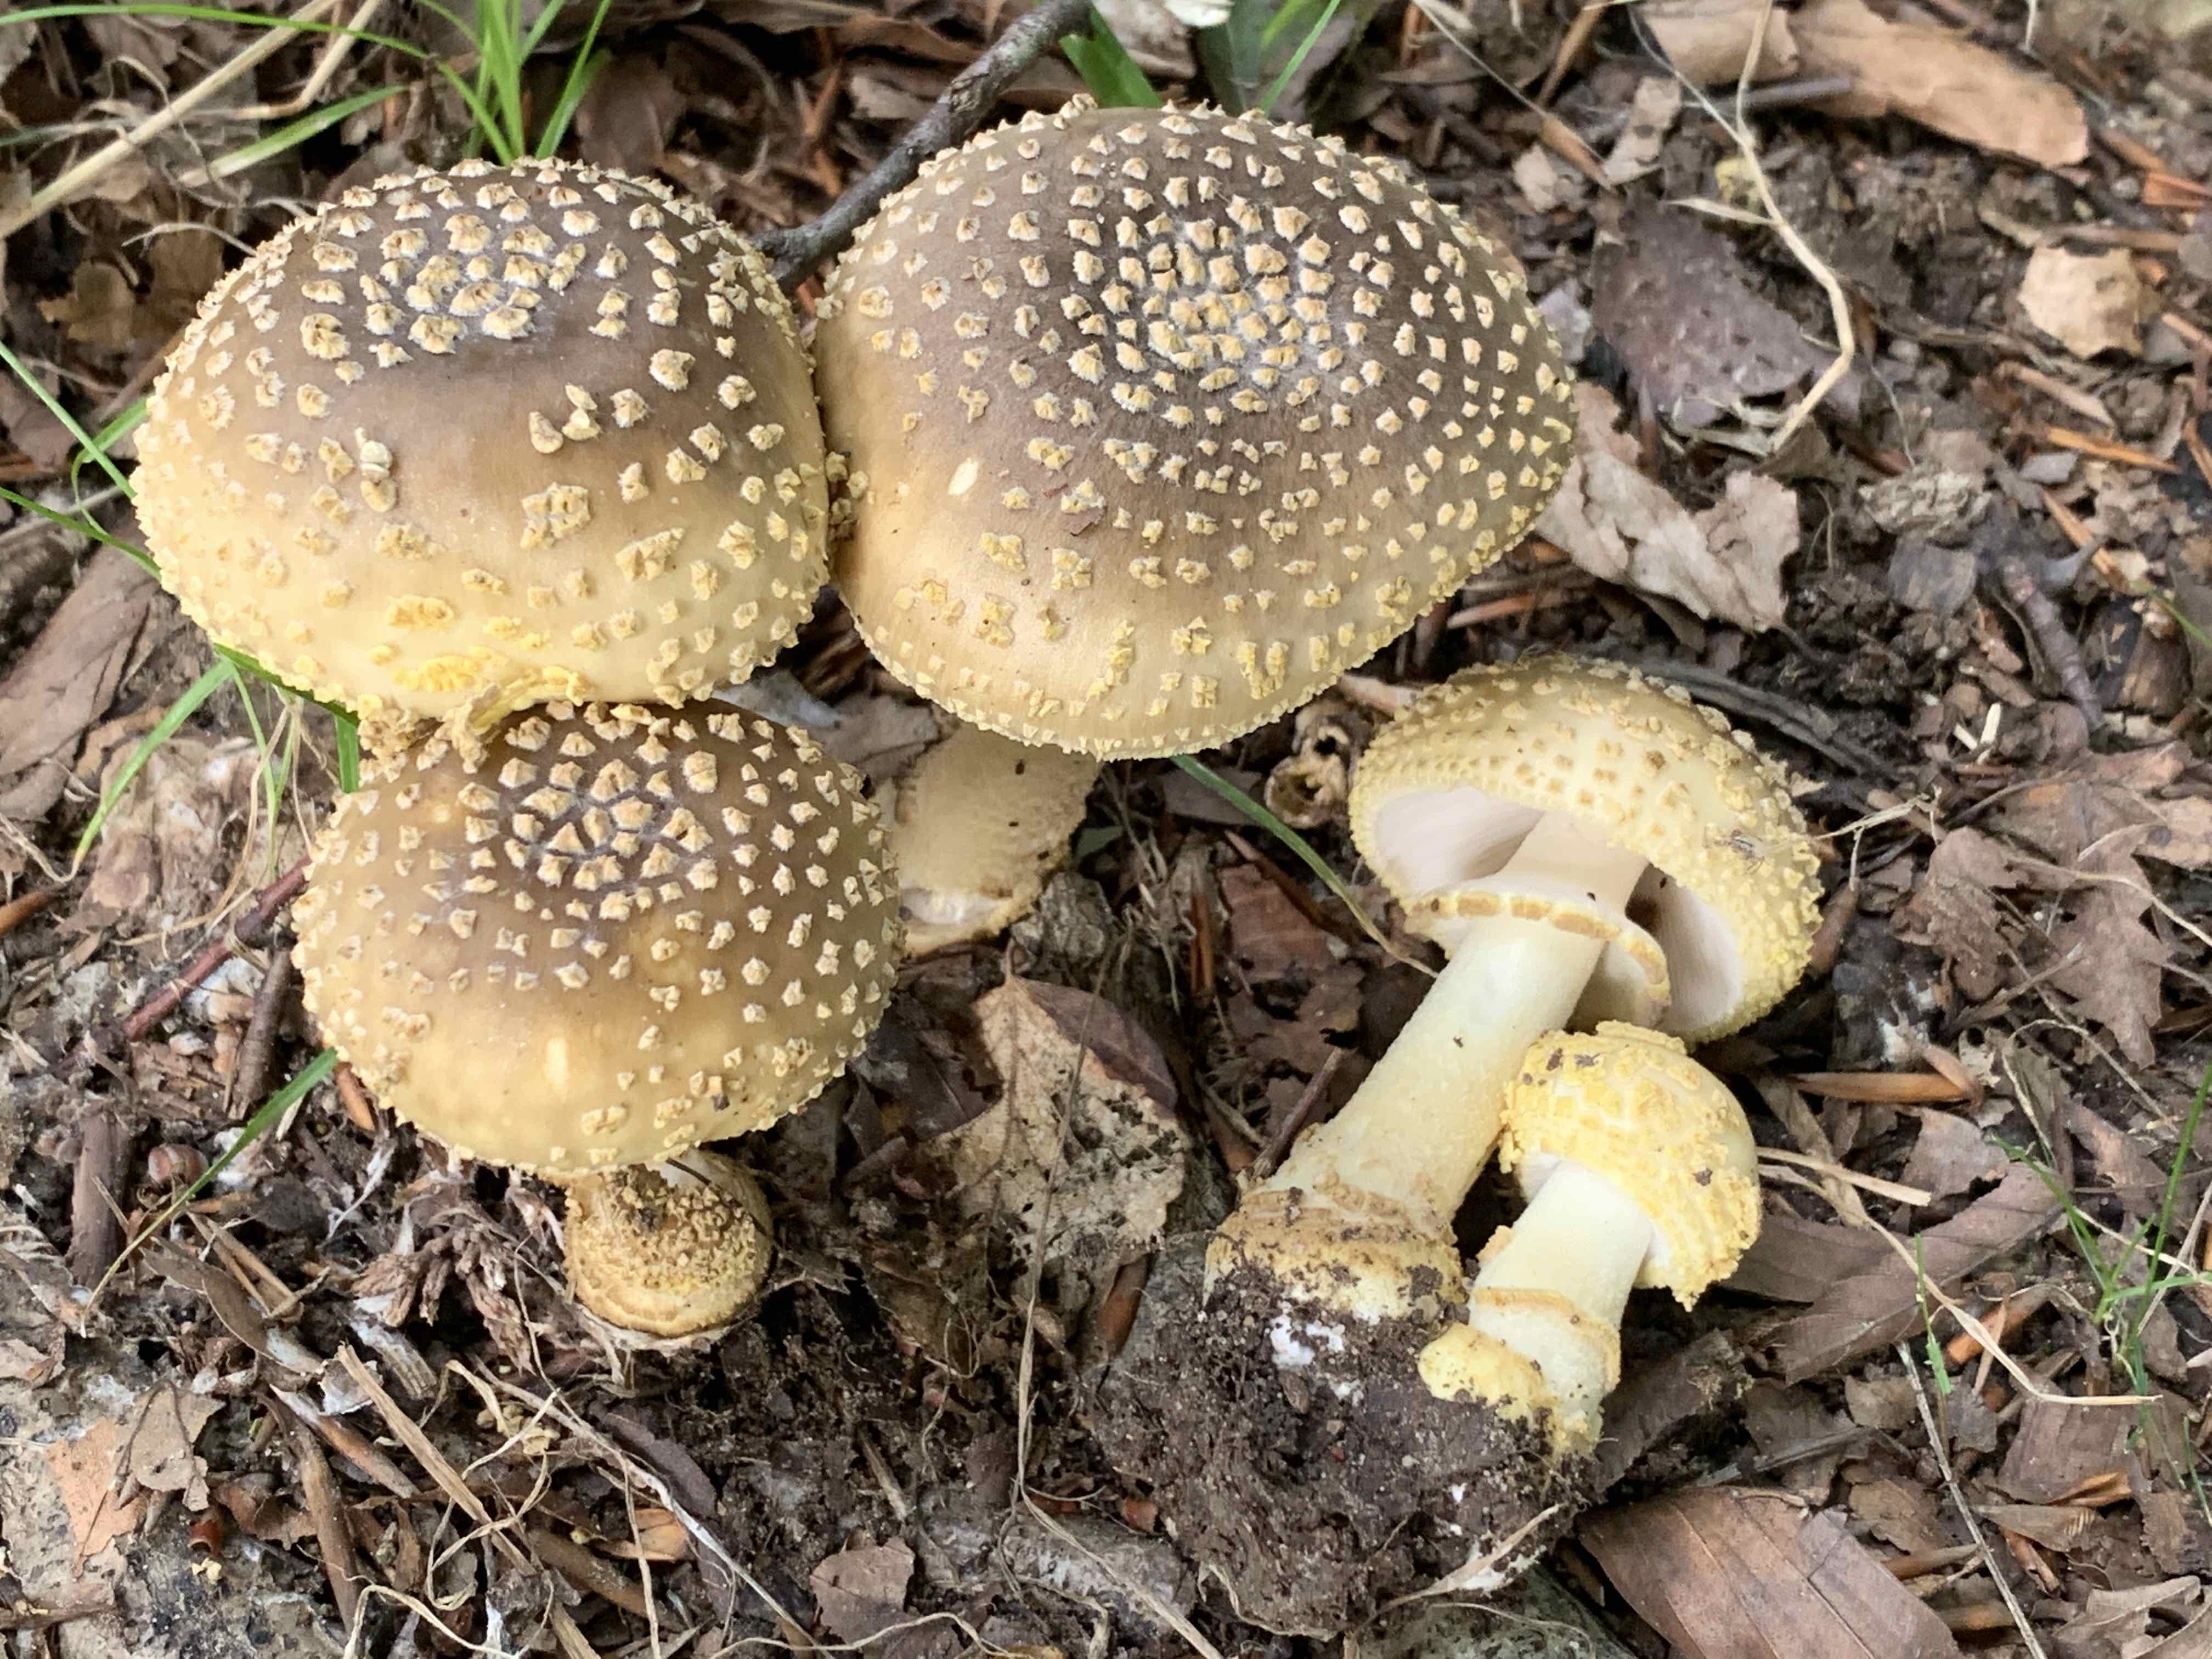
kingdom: Fungi
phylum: Basidiomycota
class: Agaricomycetes
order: Agaricales
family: Amanitaceae
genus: Amanita
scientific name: Amanita franchetii
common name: gulrandet fluesvamp
